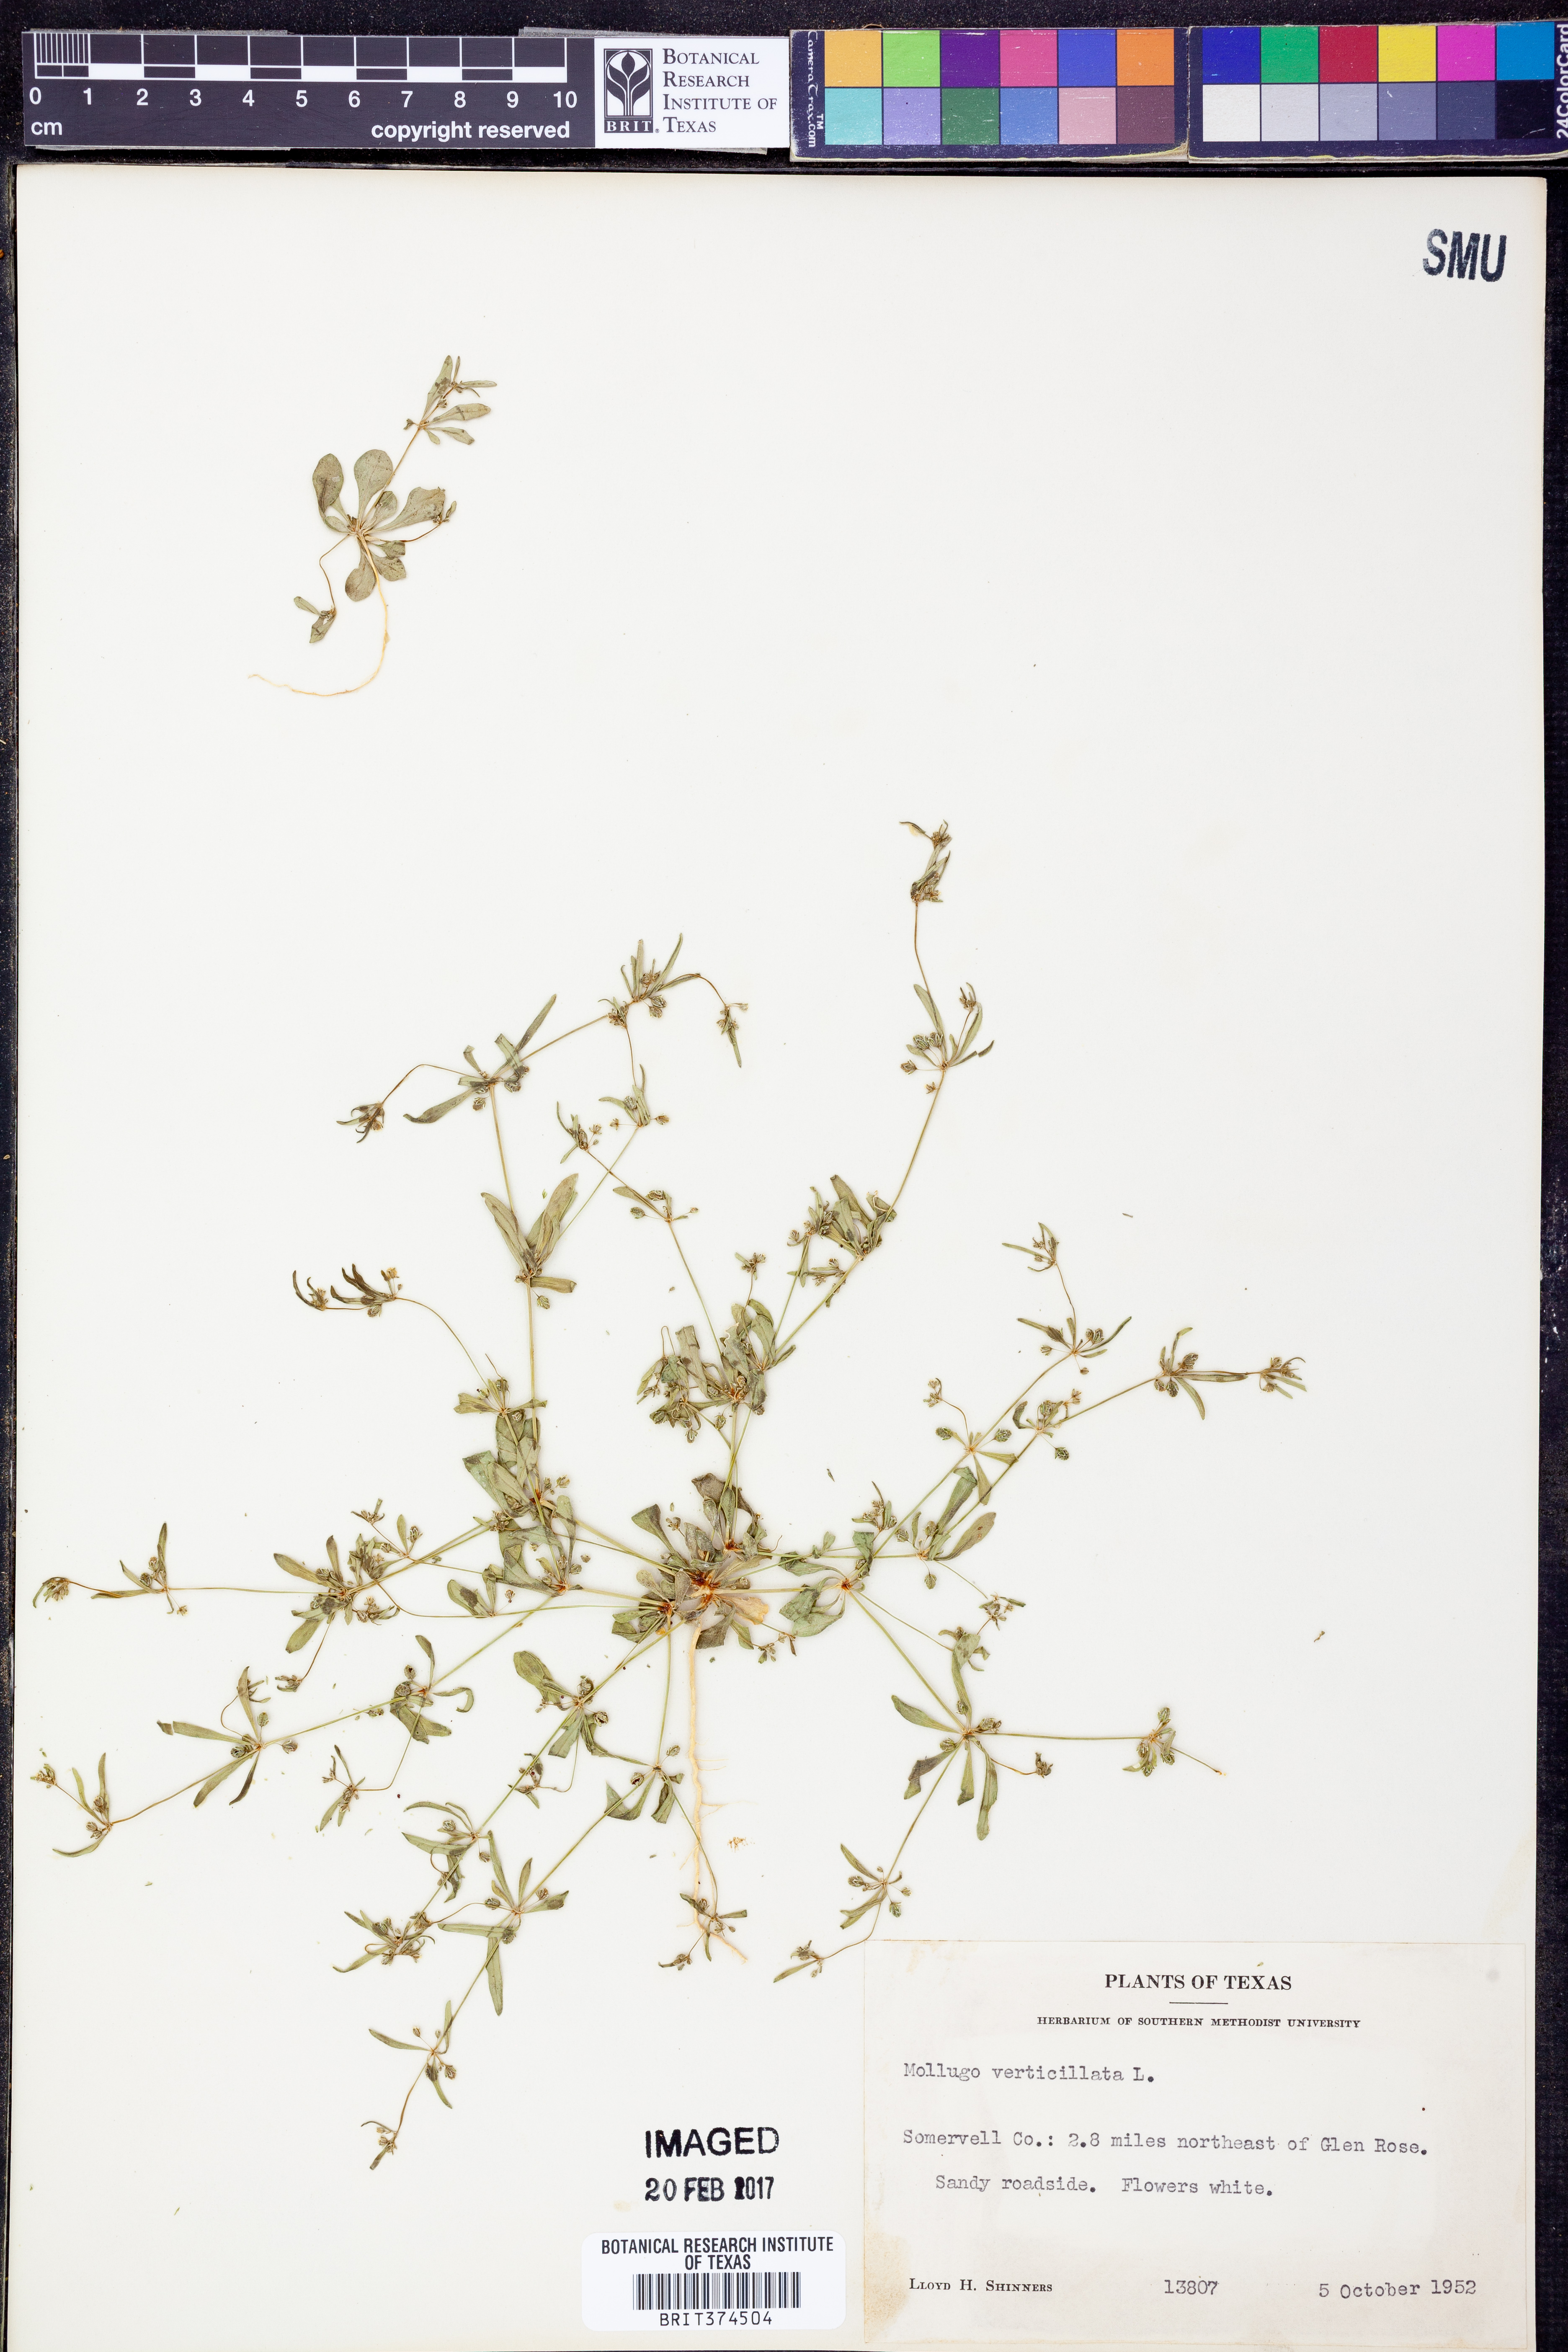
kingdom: Plantae
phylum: Tracheophyta
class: Magnoliopsida
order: Caryophyllales
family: Molluginaceae
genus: Mollugo
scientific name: Mollugo verticillata
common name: Green carpetweed
